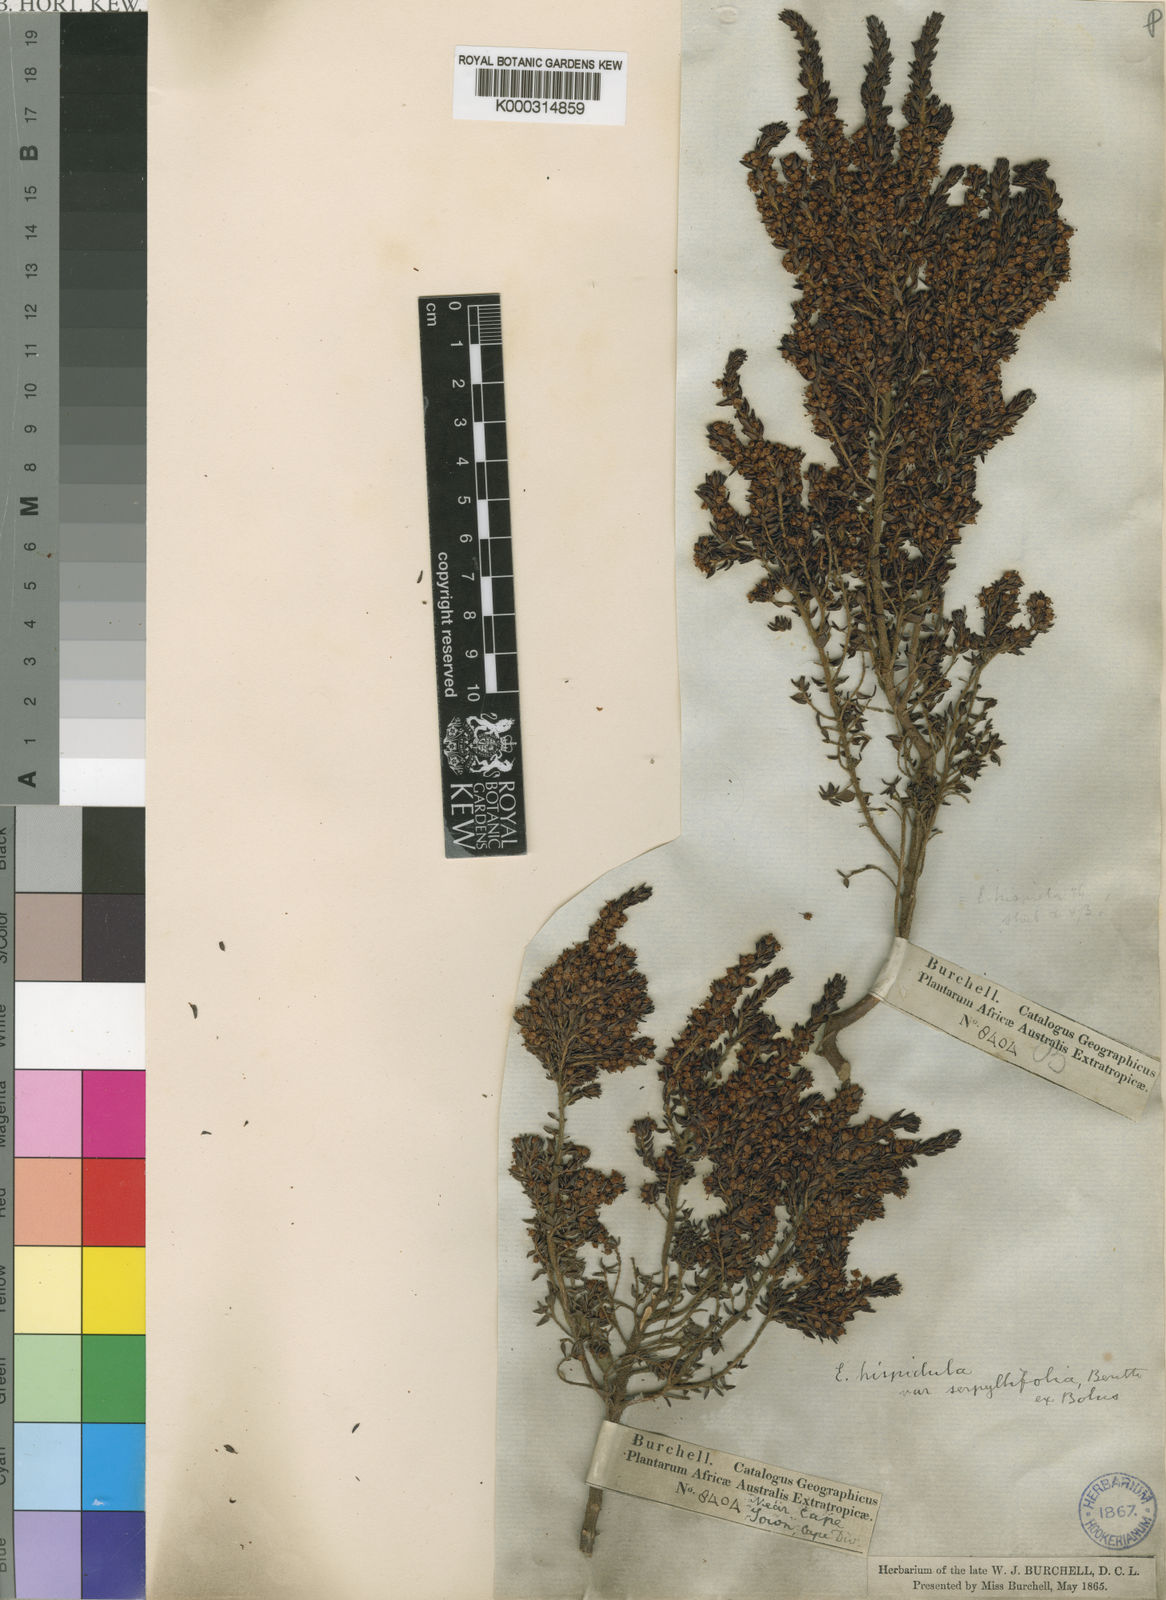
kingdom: Plantae
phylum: Tracheophyta
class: Magnoliopsida
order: Ericales
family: Ericaceae
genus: Erica
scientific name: Erica hispidula
